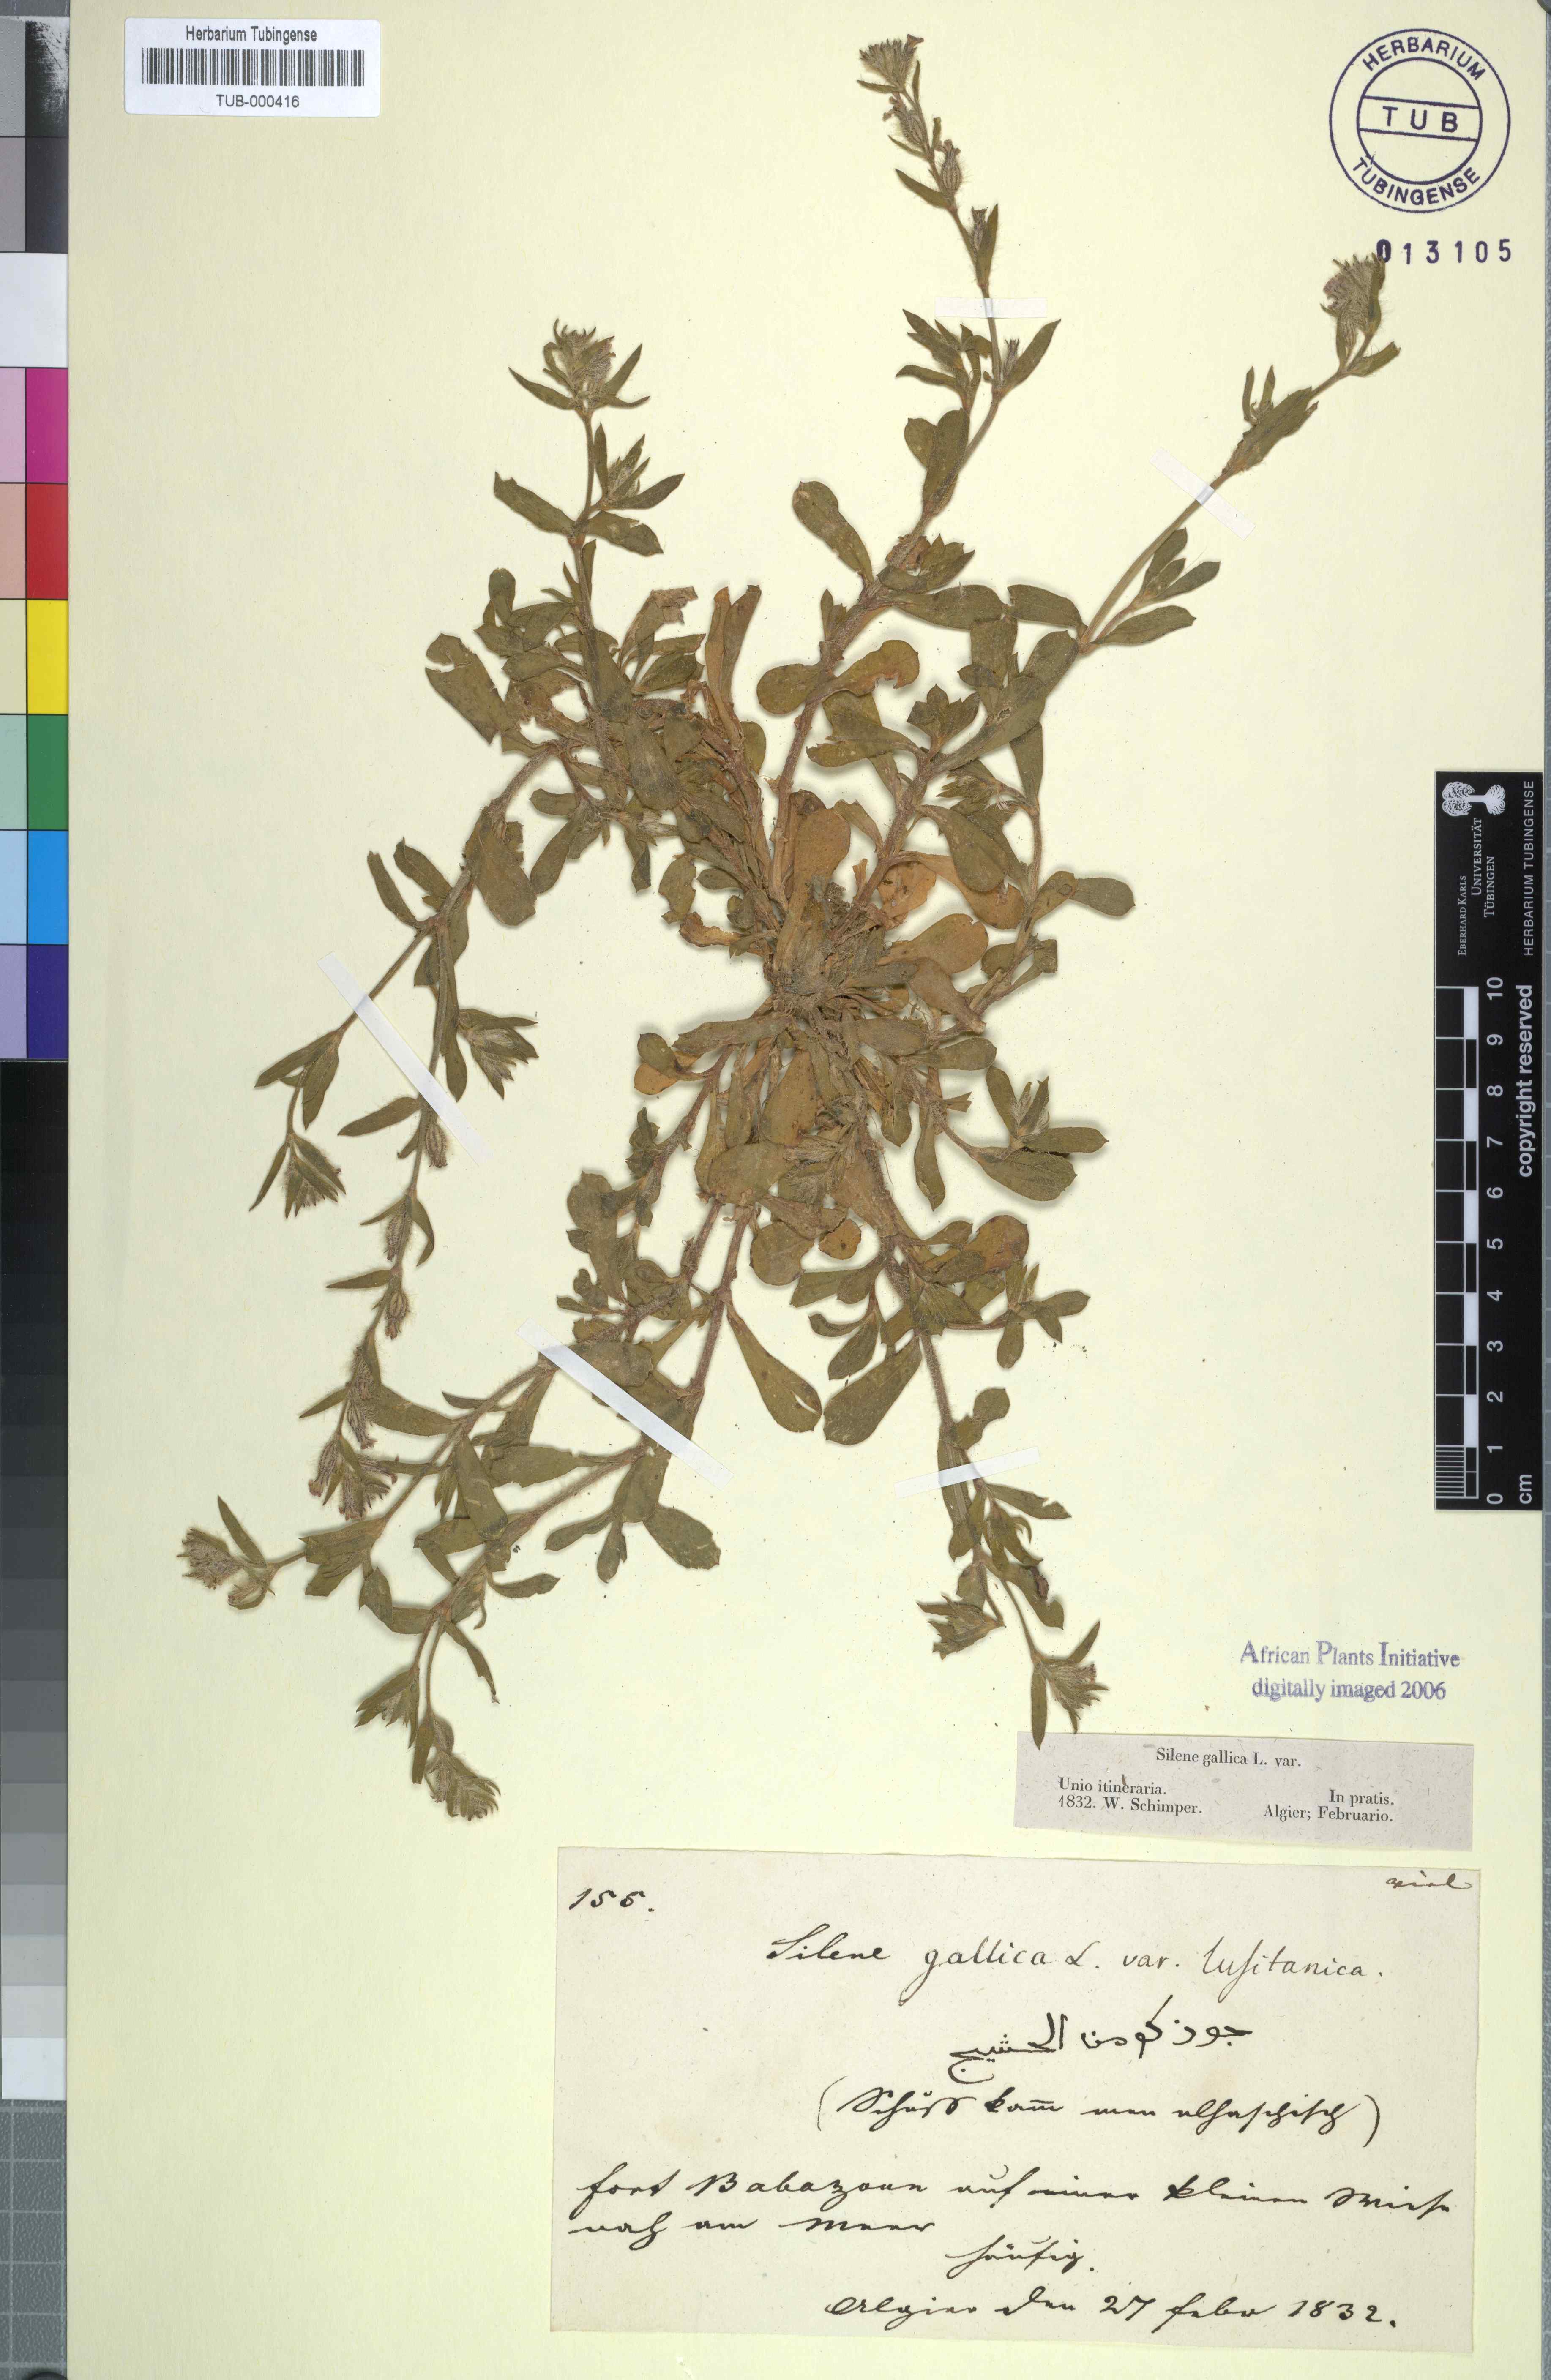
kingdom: Plantae
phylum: Tracheophyta
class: Magnoliopsida
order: Caryophyllales
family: Caryophyllaceae
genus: Silene
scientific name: Silene gallica
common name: Small-flowered catchfly
